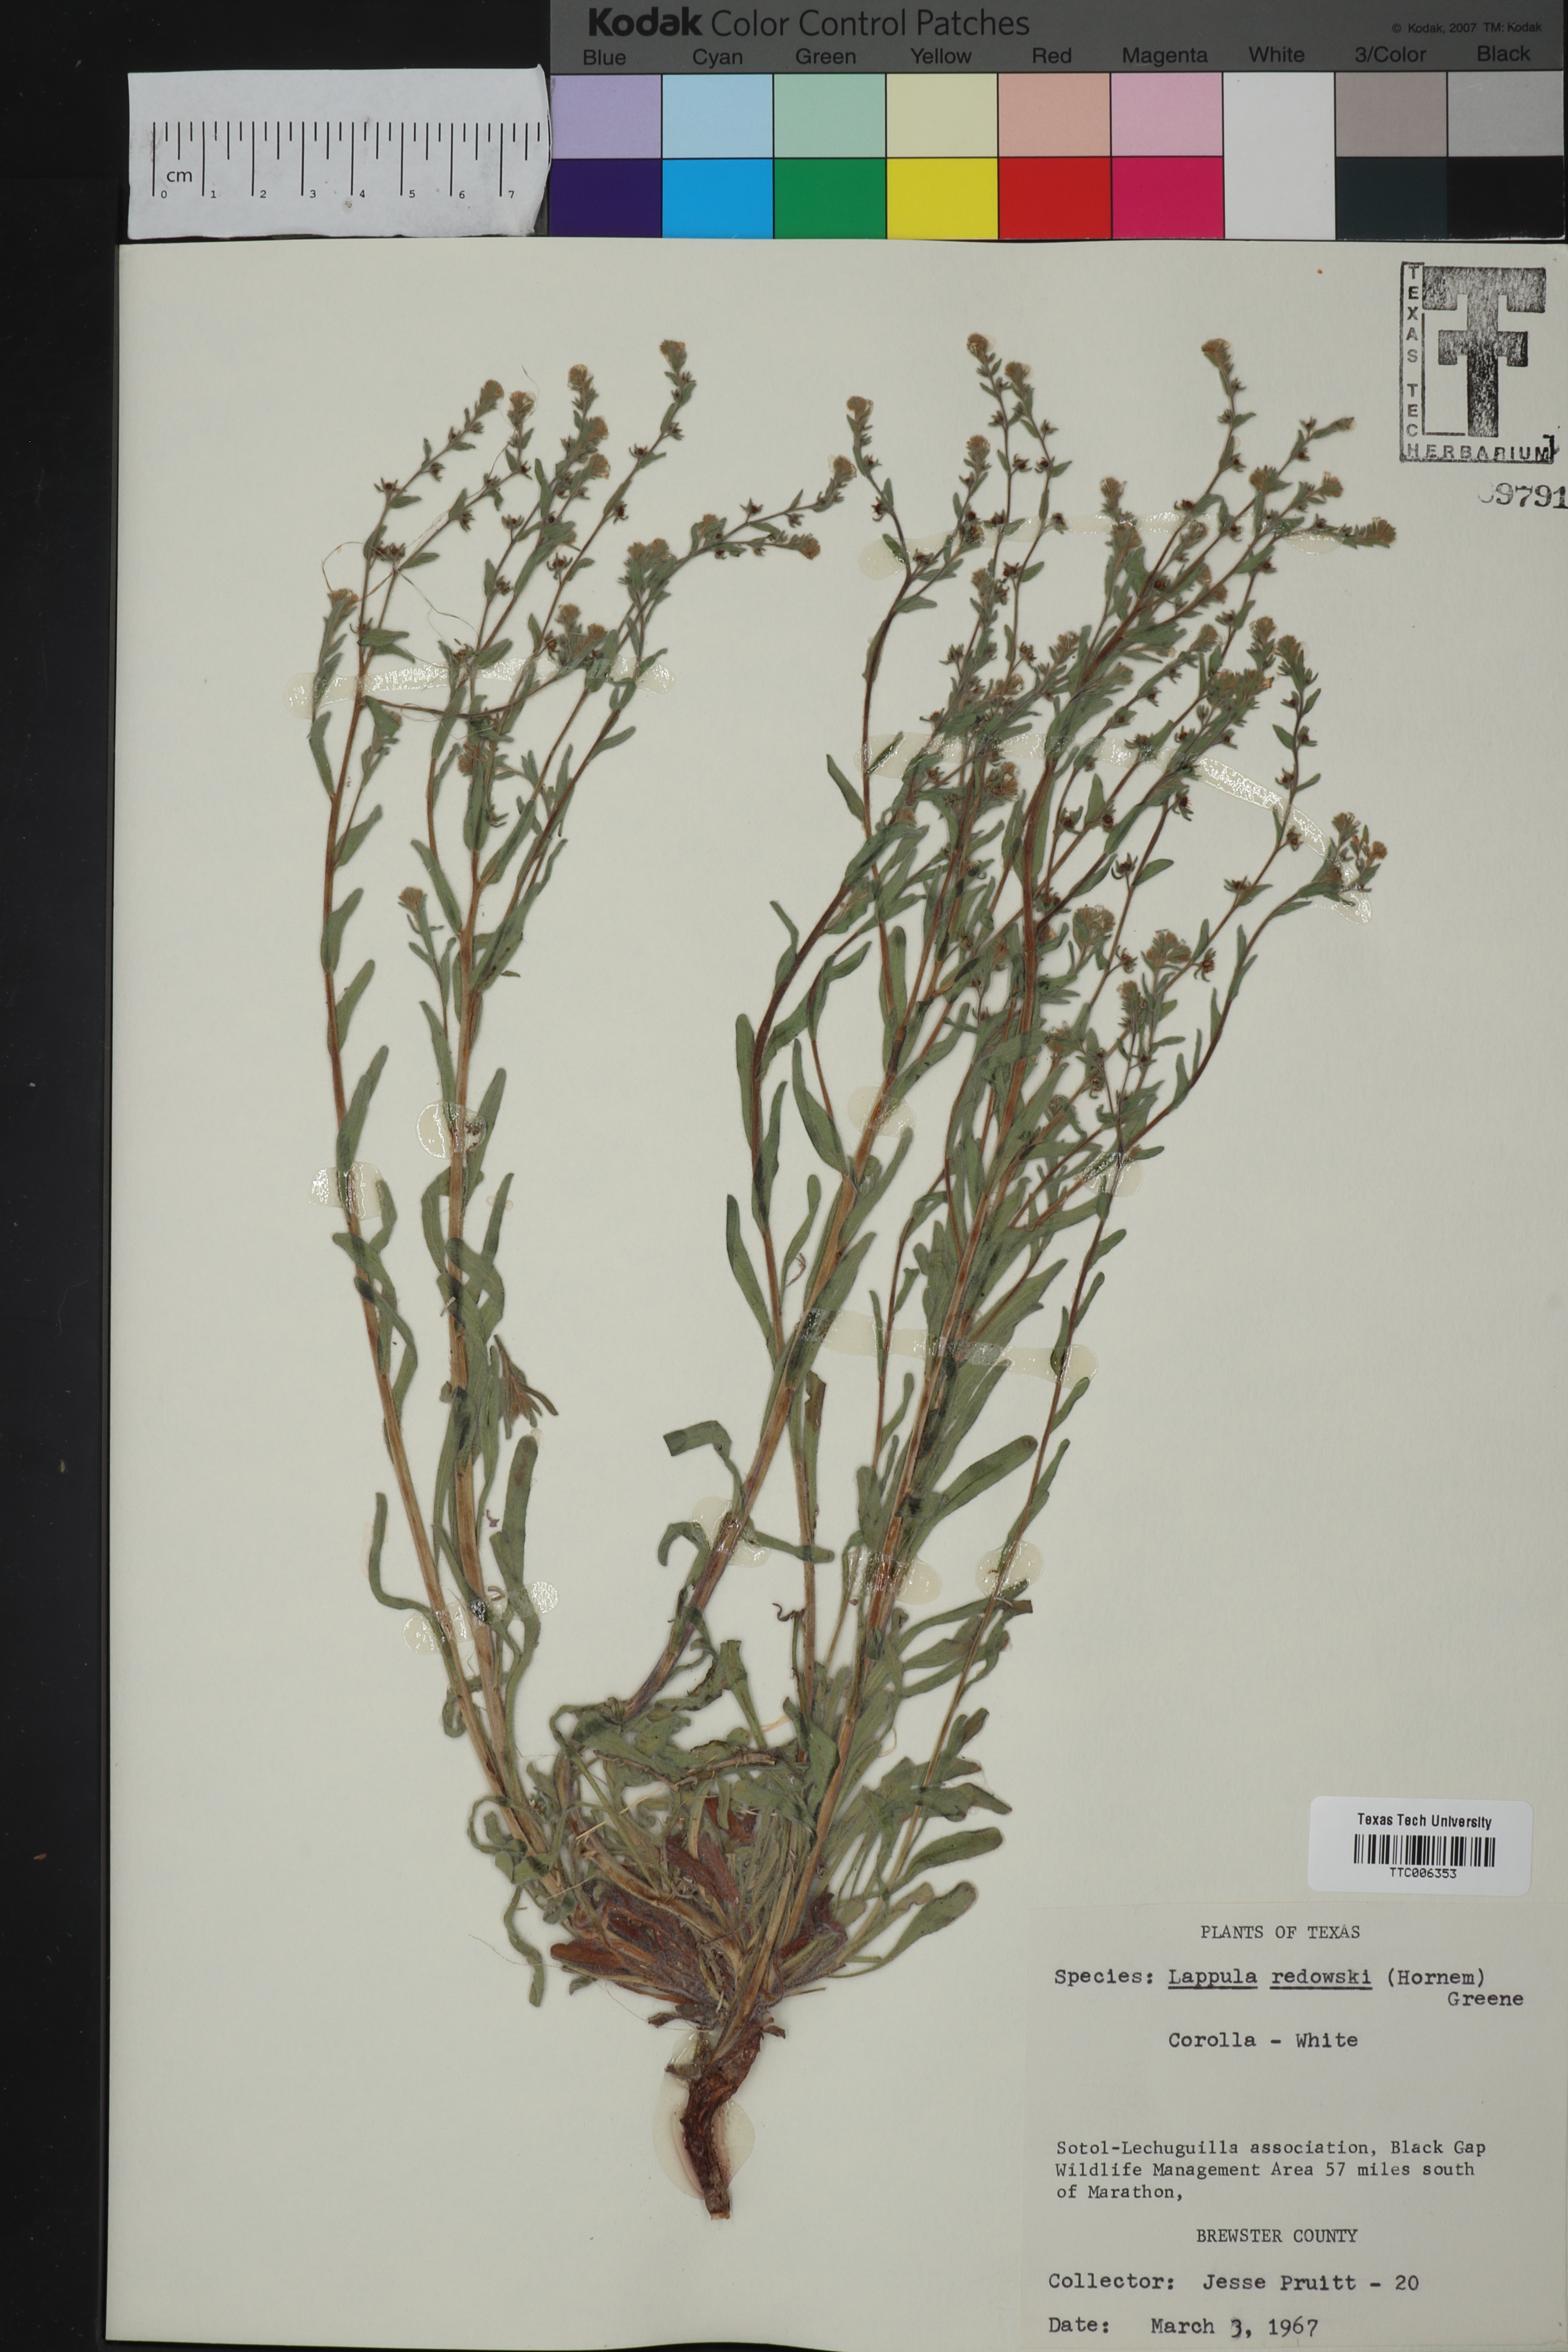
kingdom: Plantae
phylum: Tracheophyta
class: Magnoliopsida
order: Boraginales
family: Boraginaceae
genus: Lappula
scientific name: Lappula redowskii
